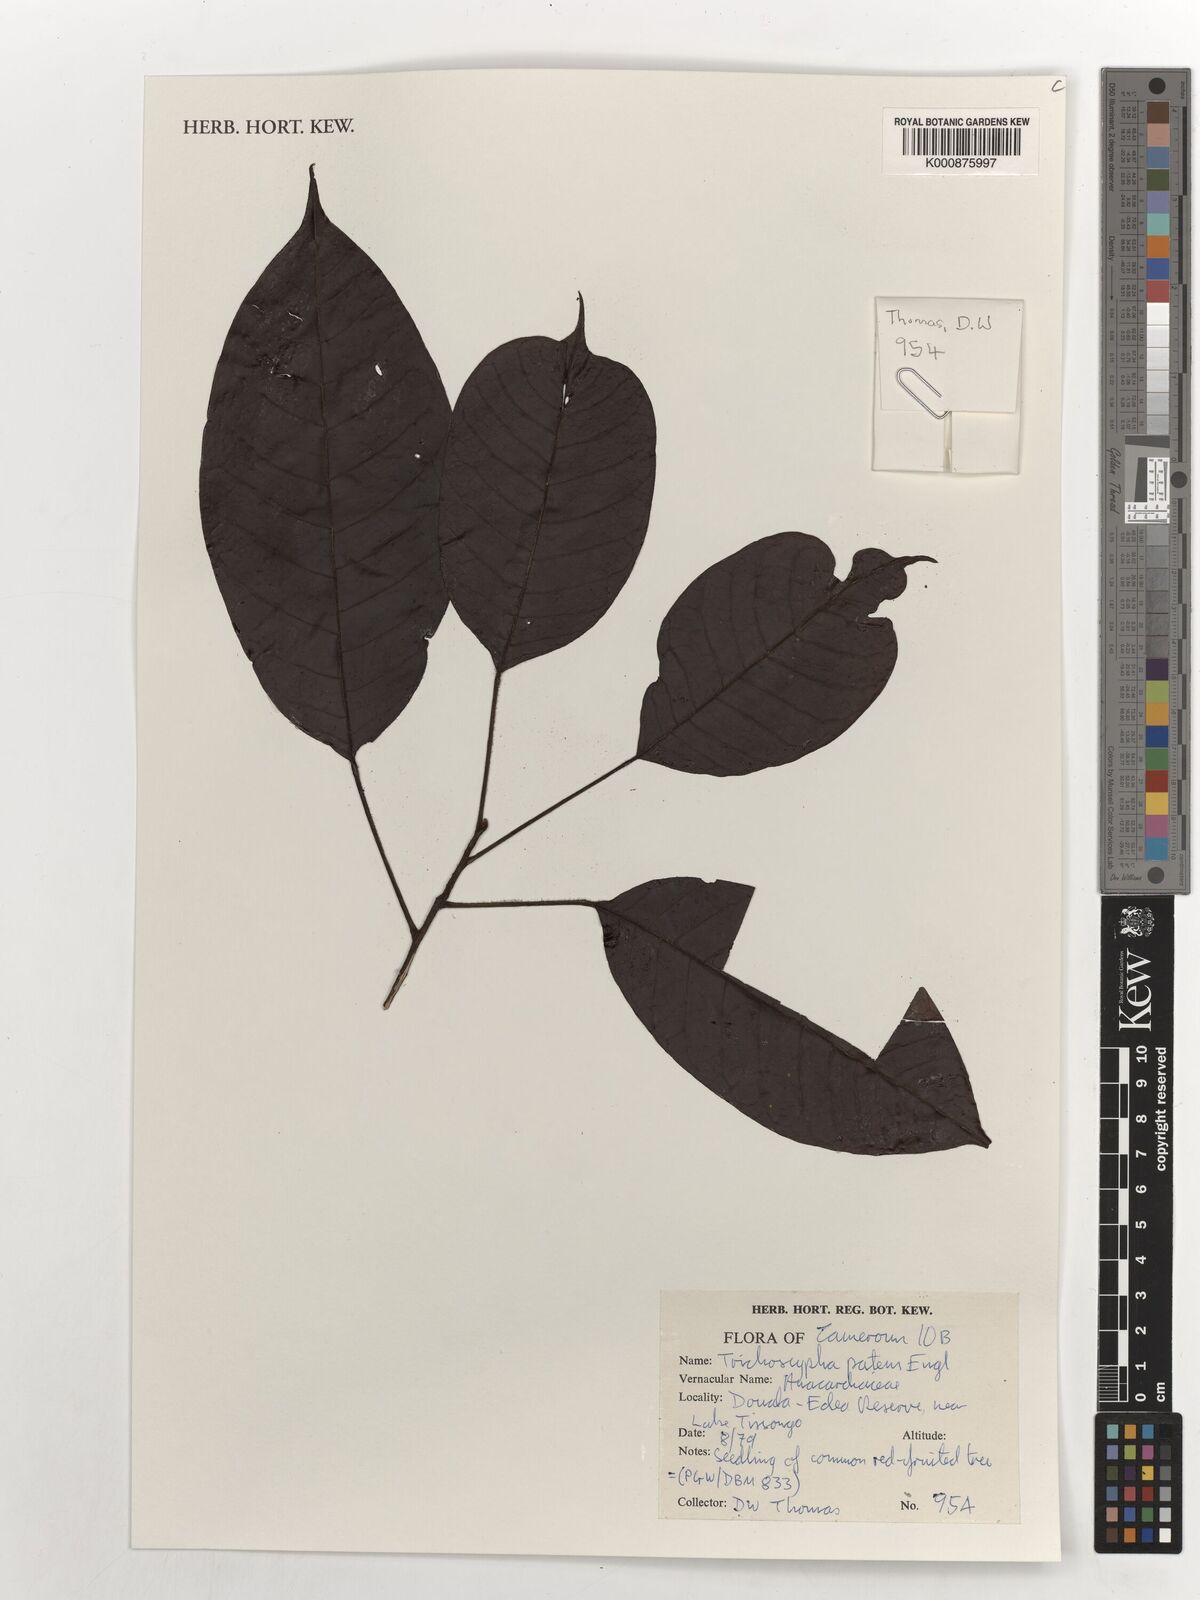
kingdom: Plantae
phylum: Tracheophyta
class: Magnoliopsida
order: Sapindales
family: Anacardiaceae
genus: Trichoscypha
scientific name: Trichoscypha patens
